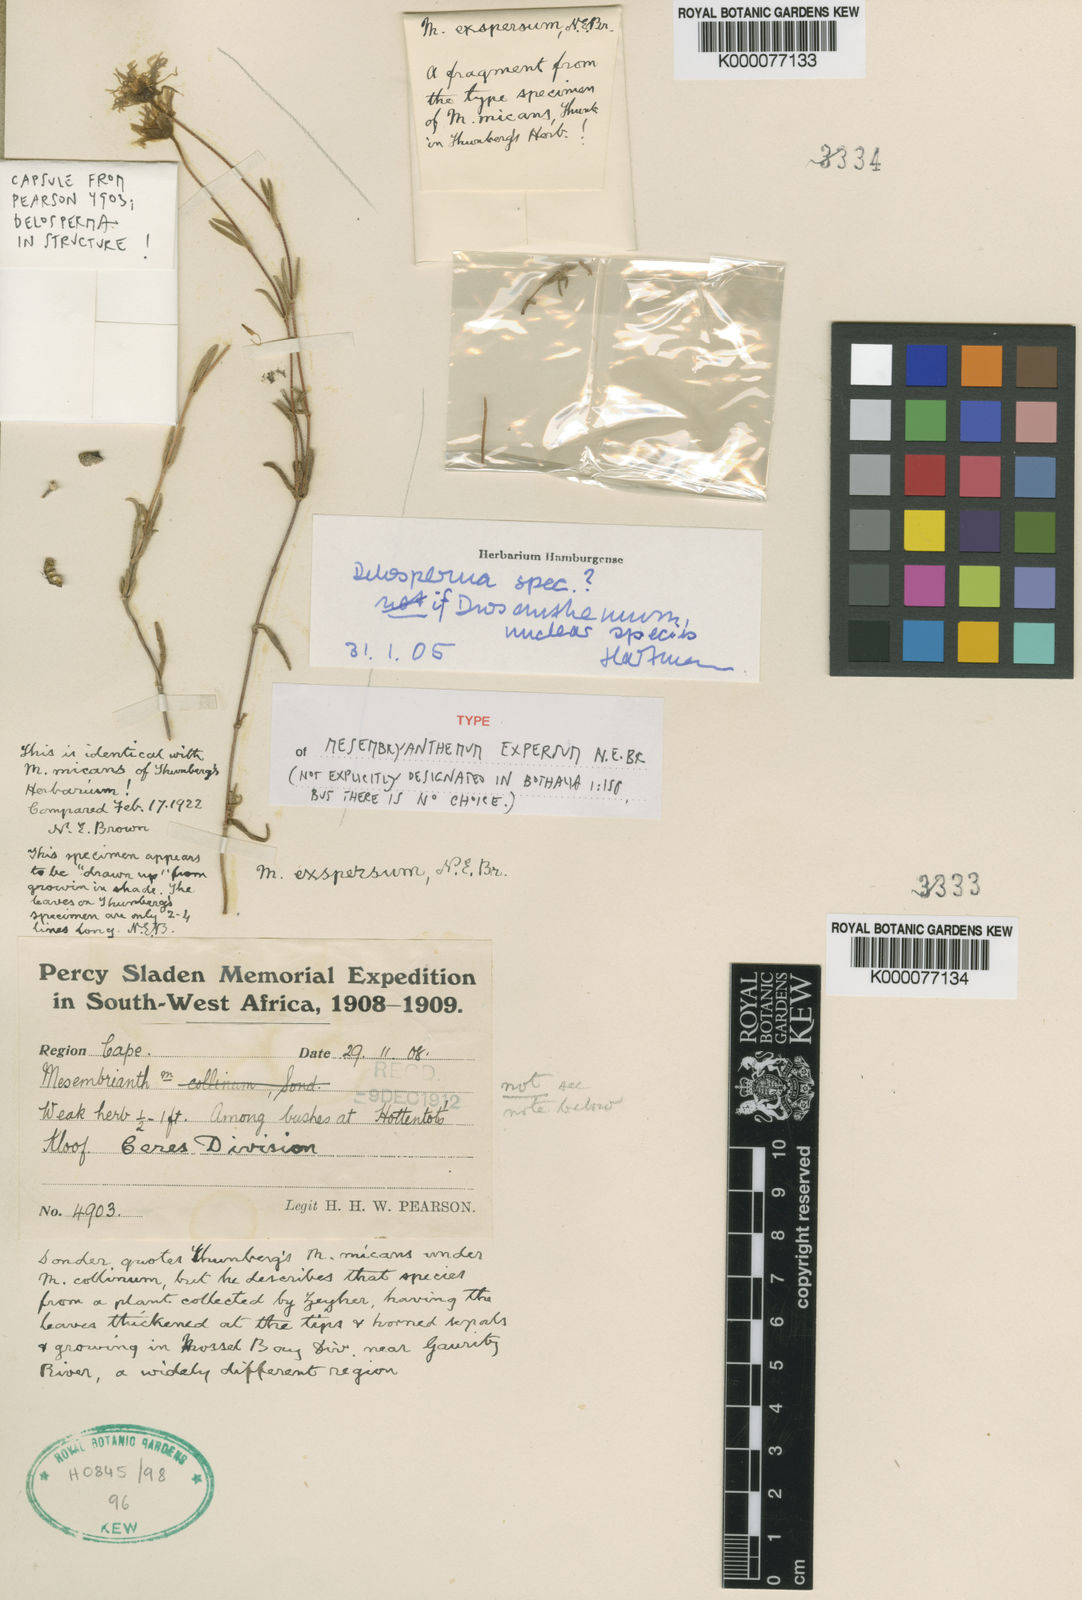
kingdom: Plantae
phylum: Tracheophyta
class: Magnoliopsida
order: Caryophyllales
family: Aizoaceae
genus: Delosperma
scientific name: Delosperma
